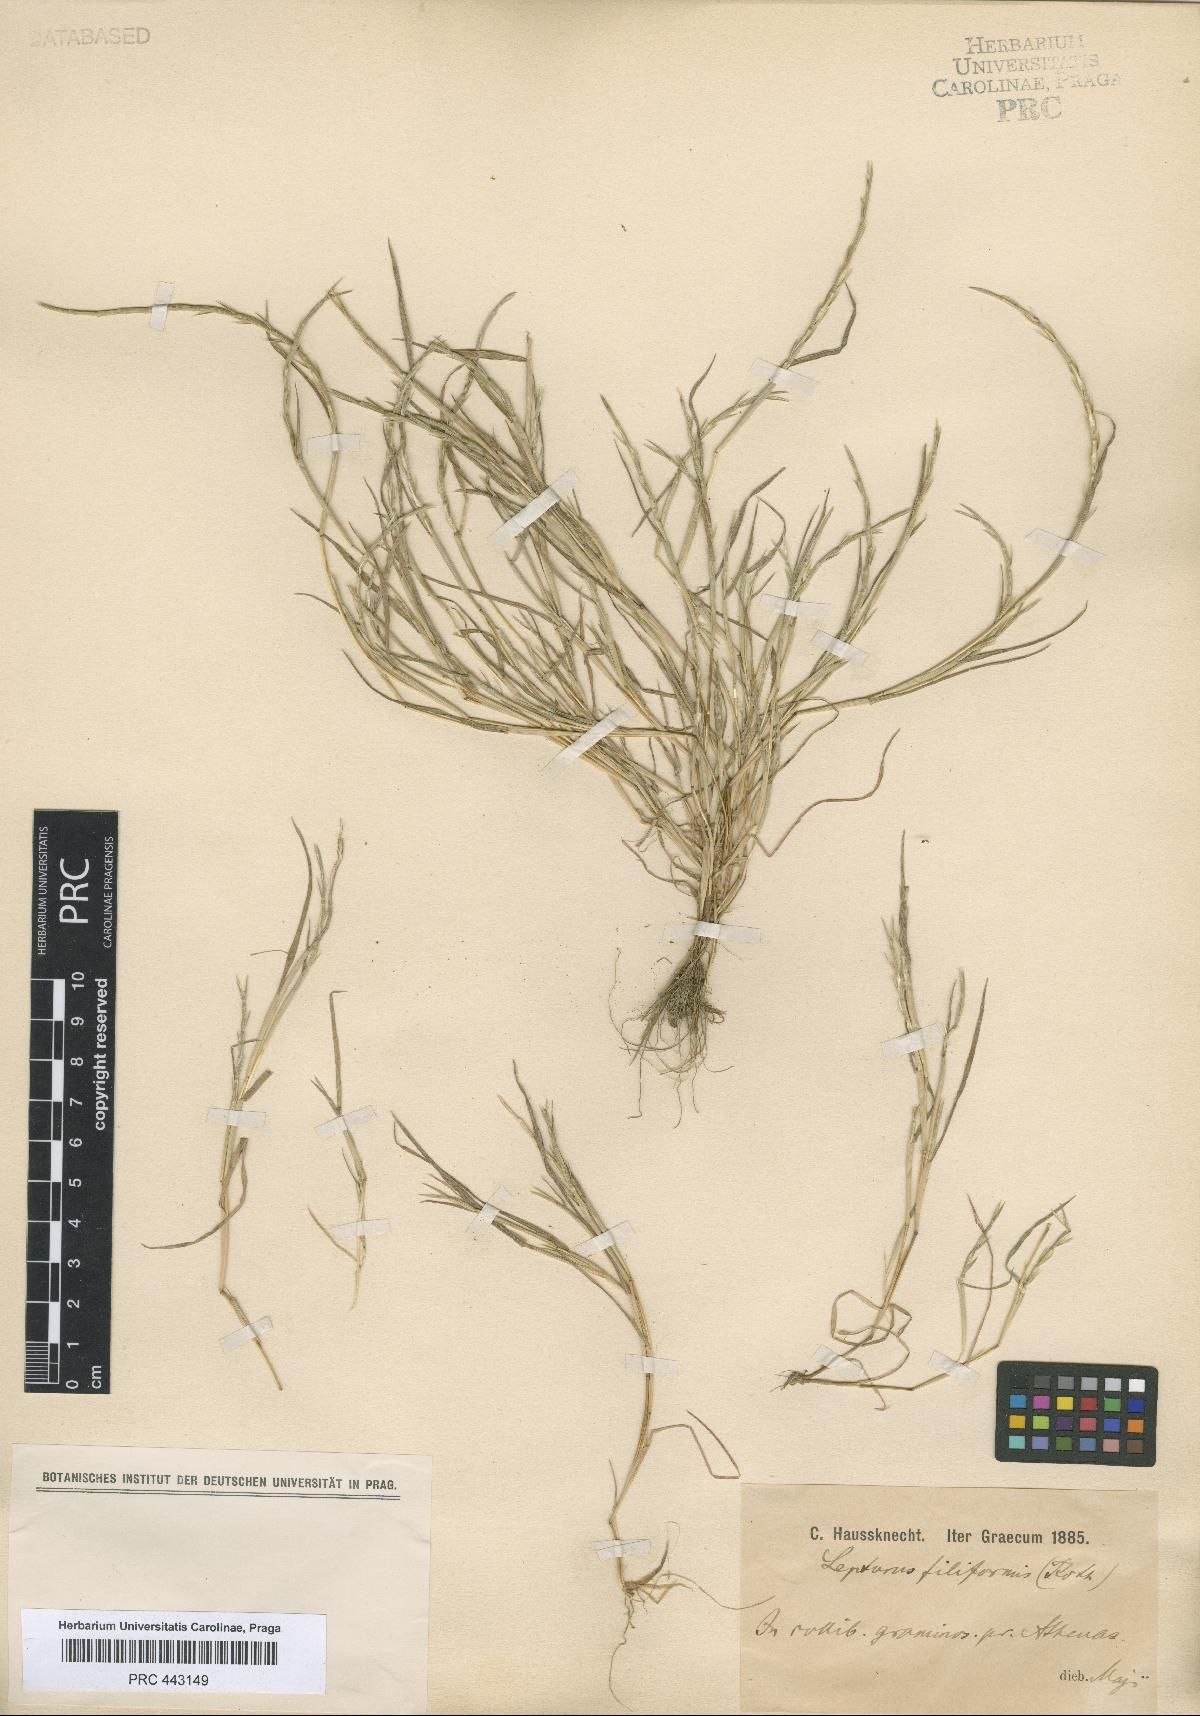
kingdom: Plantae
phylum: Tracheophyta
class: Liliopsida
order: Poales
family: Poaceae
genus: Parapholis
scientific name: Parapholis filiformis
